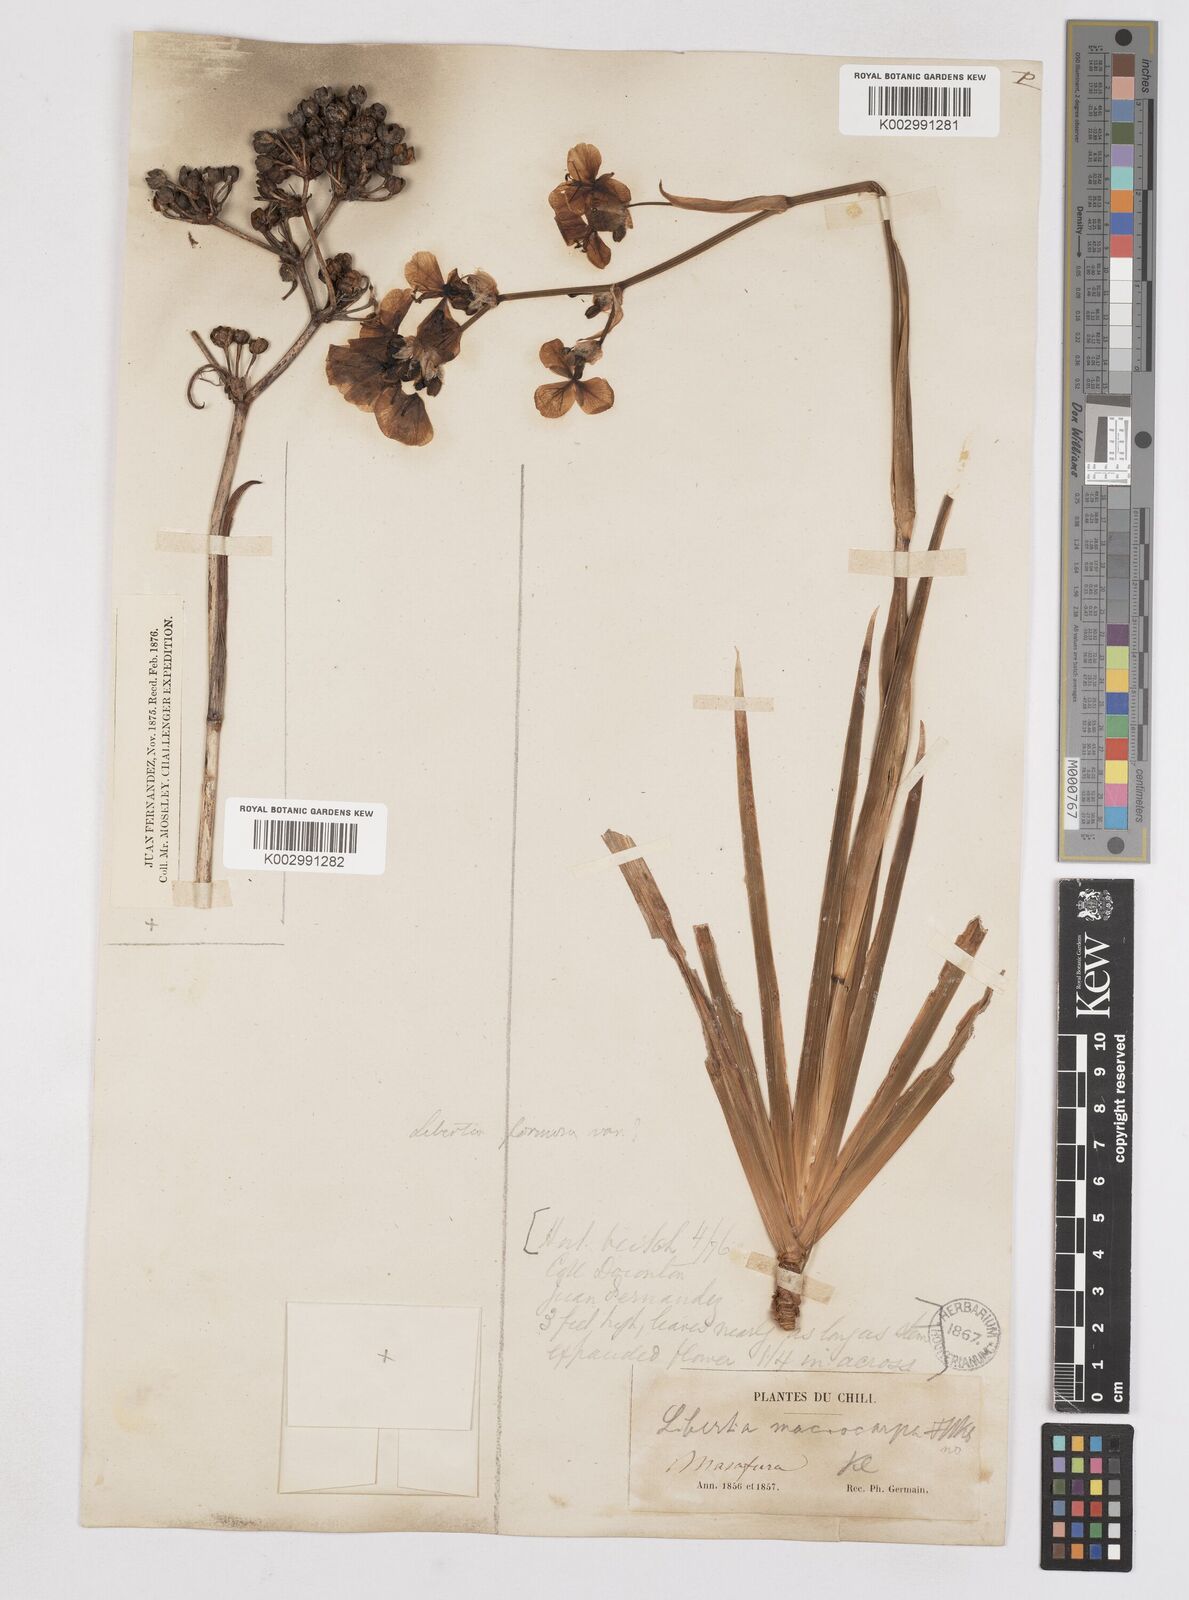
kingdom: Plantae
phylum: Tracheophyta
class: Liliopsida
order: Asparagales
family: Iridaceae
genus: Libertia
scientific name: Libertia ixioides
